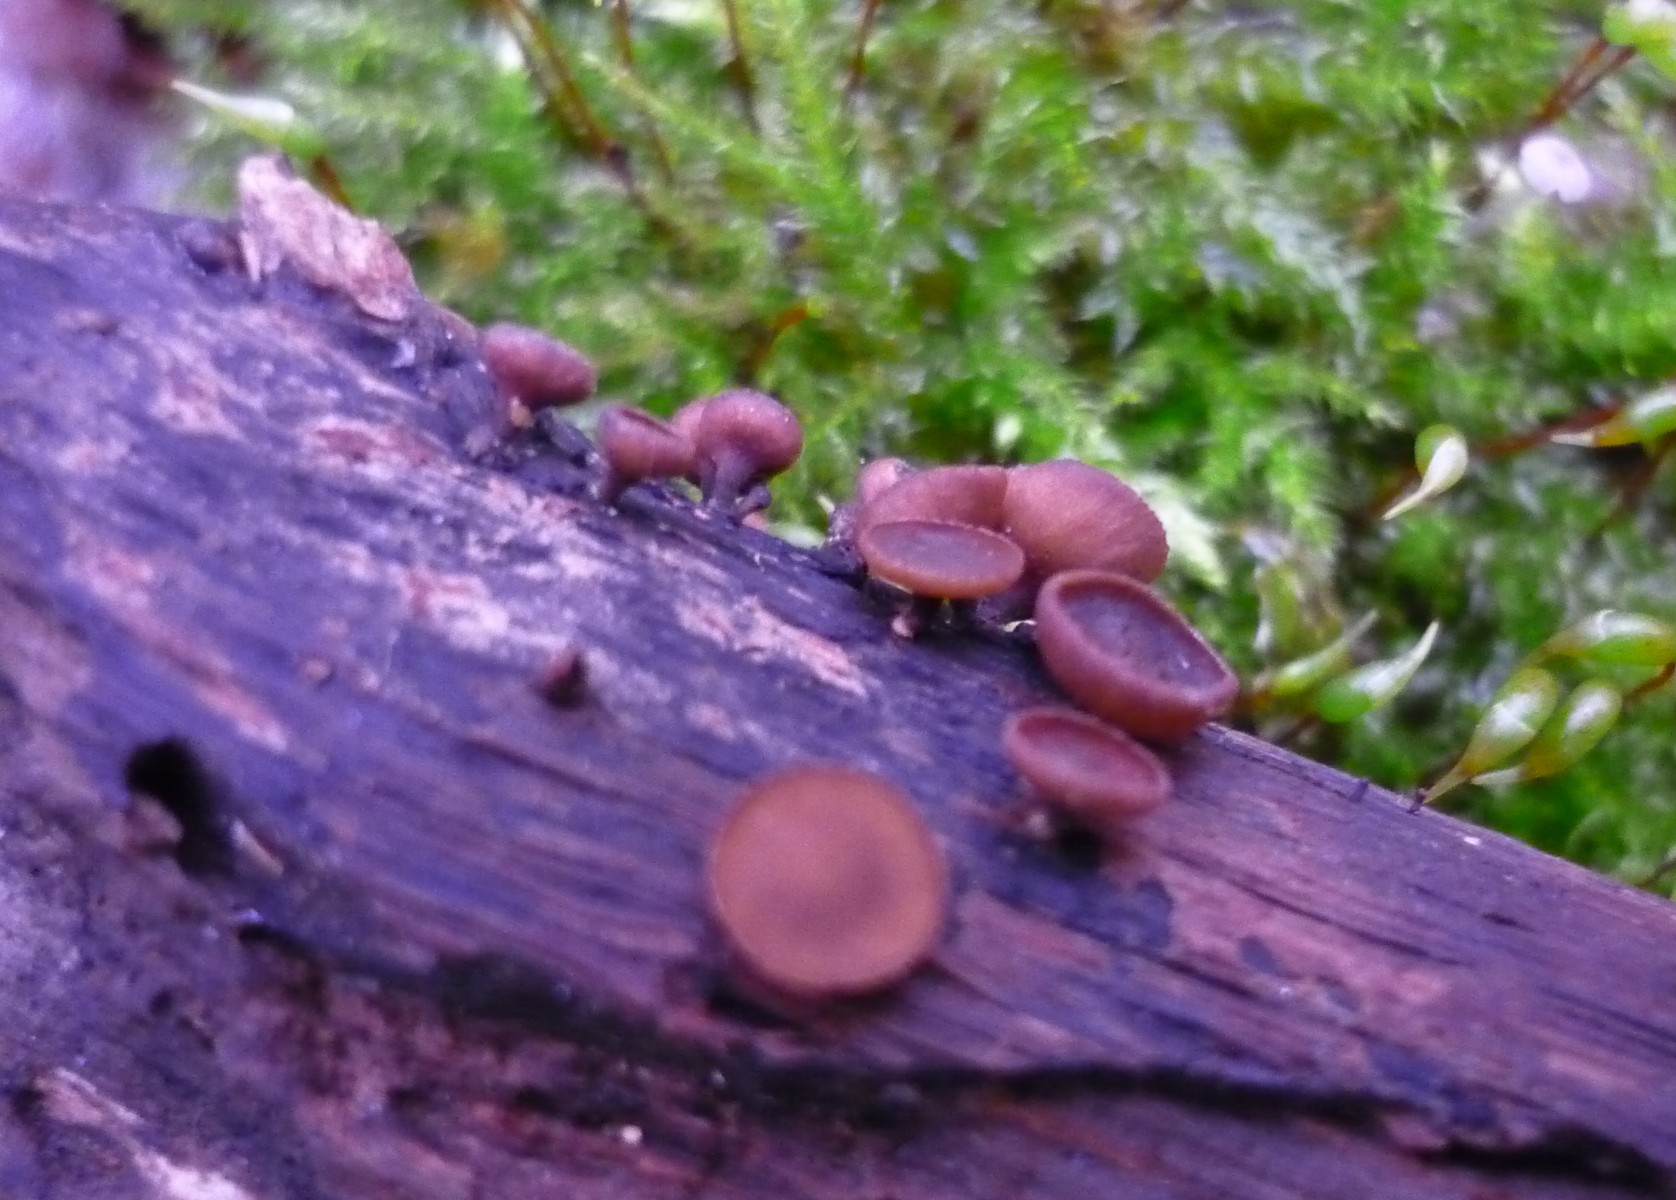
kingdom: Fungi
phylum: Ascomycota
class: Leotiomycetes
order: Helotiales
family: Rutstroemiaceae
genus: Rutstroemia
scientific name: Rutstroemia firma
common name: gren-brunskive
